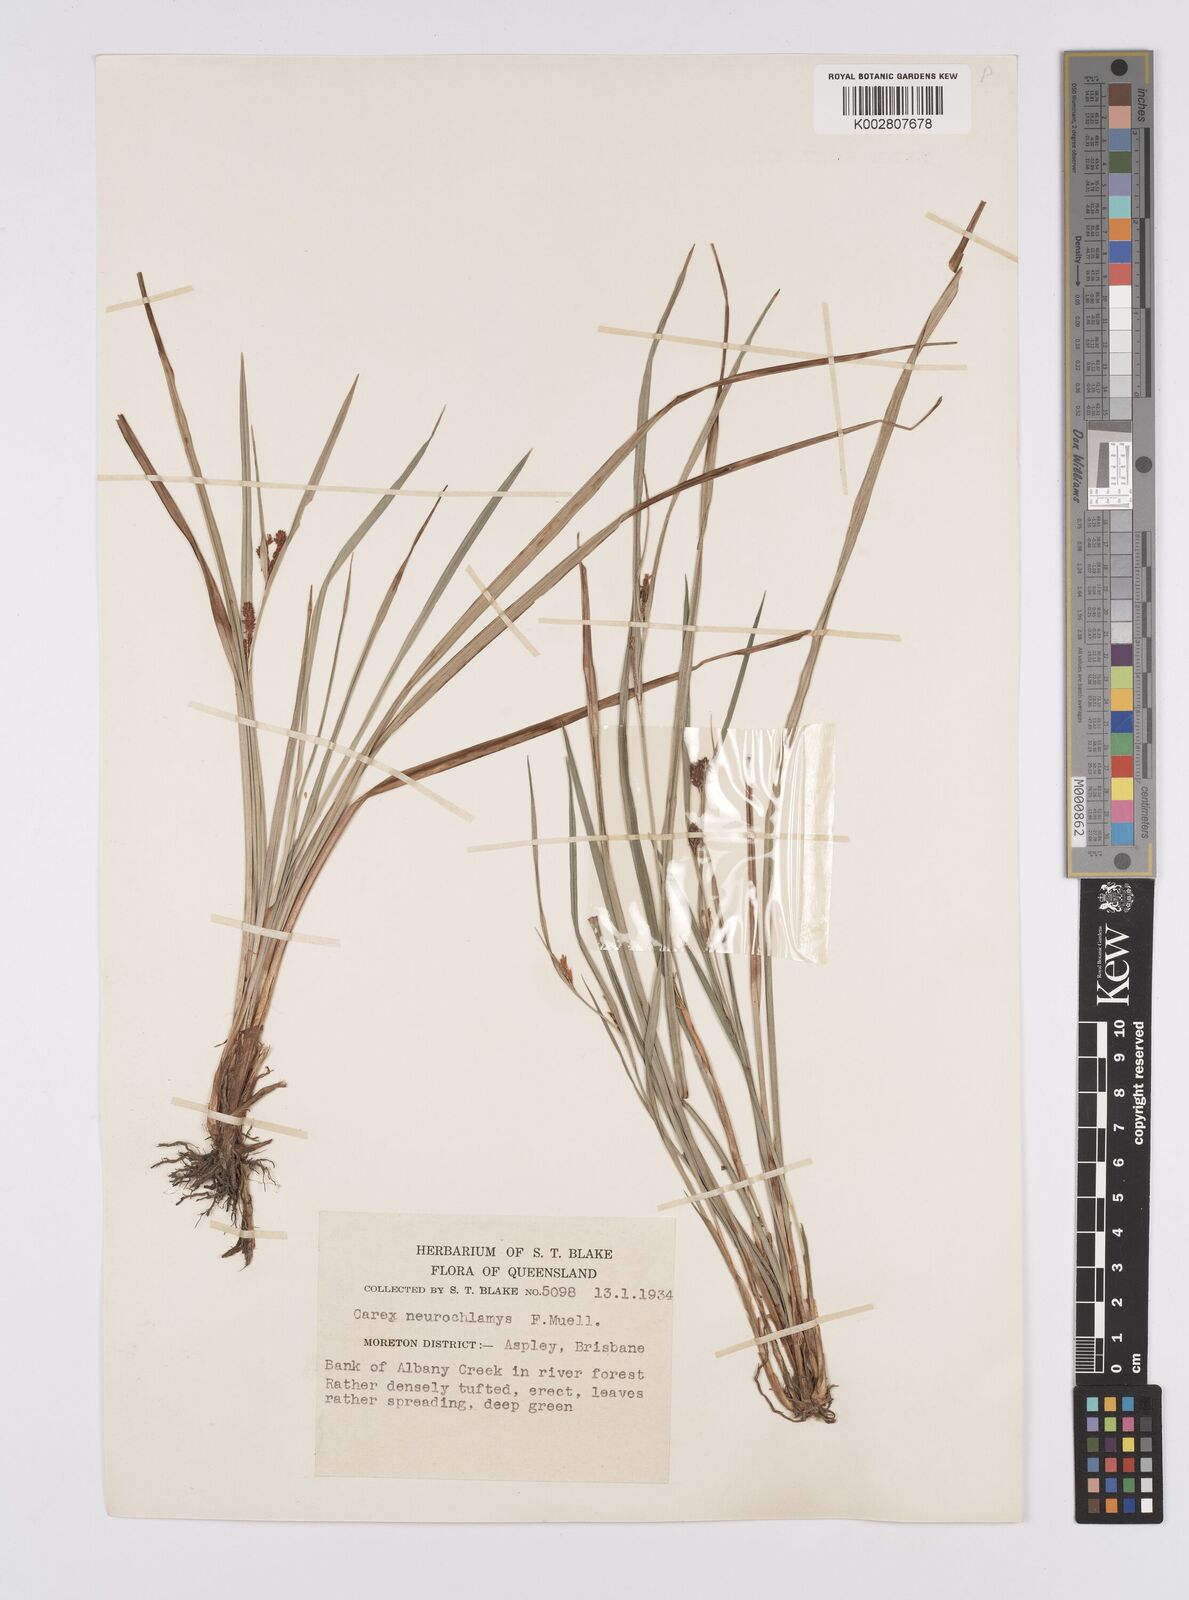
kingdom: Plantae
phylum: Tracheophyta
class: Liliopsida
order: Poales
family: Cyperaceae
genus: Carex
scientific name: Carex maculata
